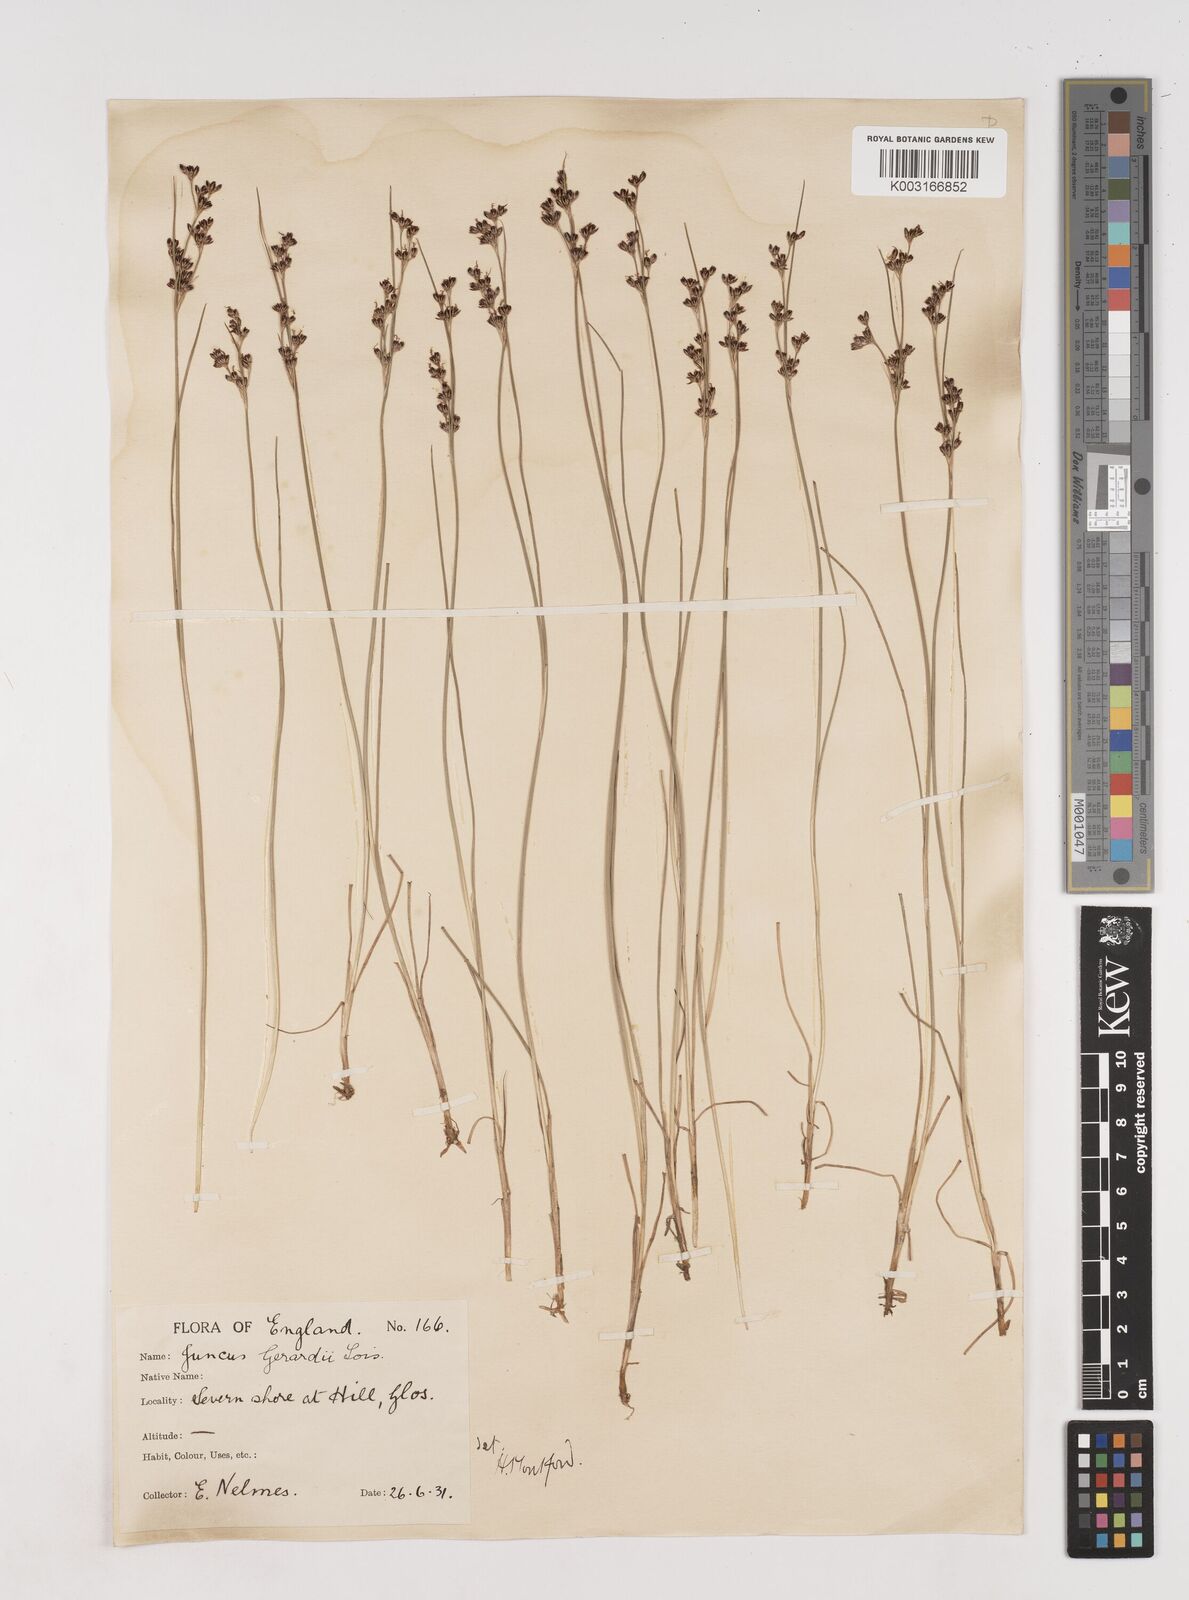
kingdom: Plantae
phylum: Tracheophyta
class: Liliopsida
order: Poales
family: Juncaceae
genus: Juncus
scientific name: Juncus gerardi
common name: Saltmarsh rush
